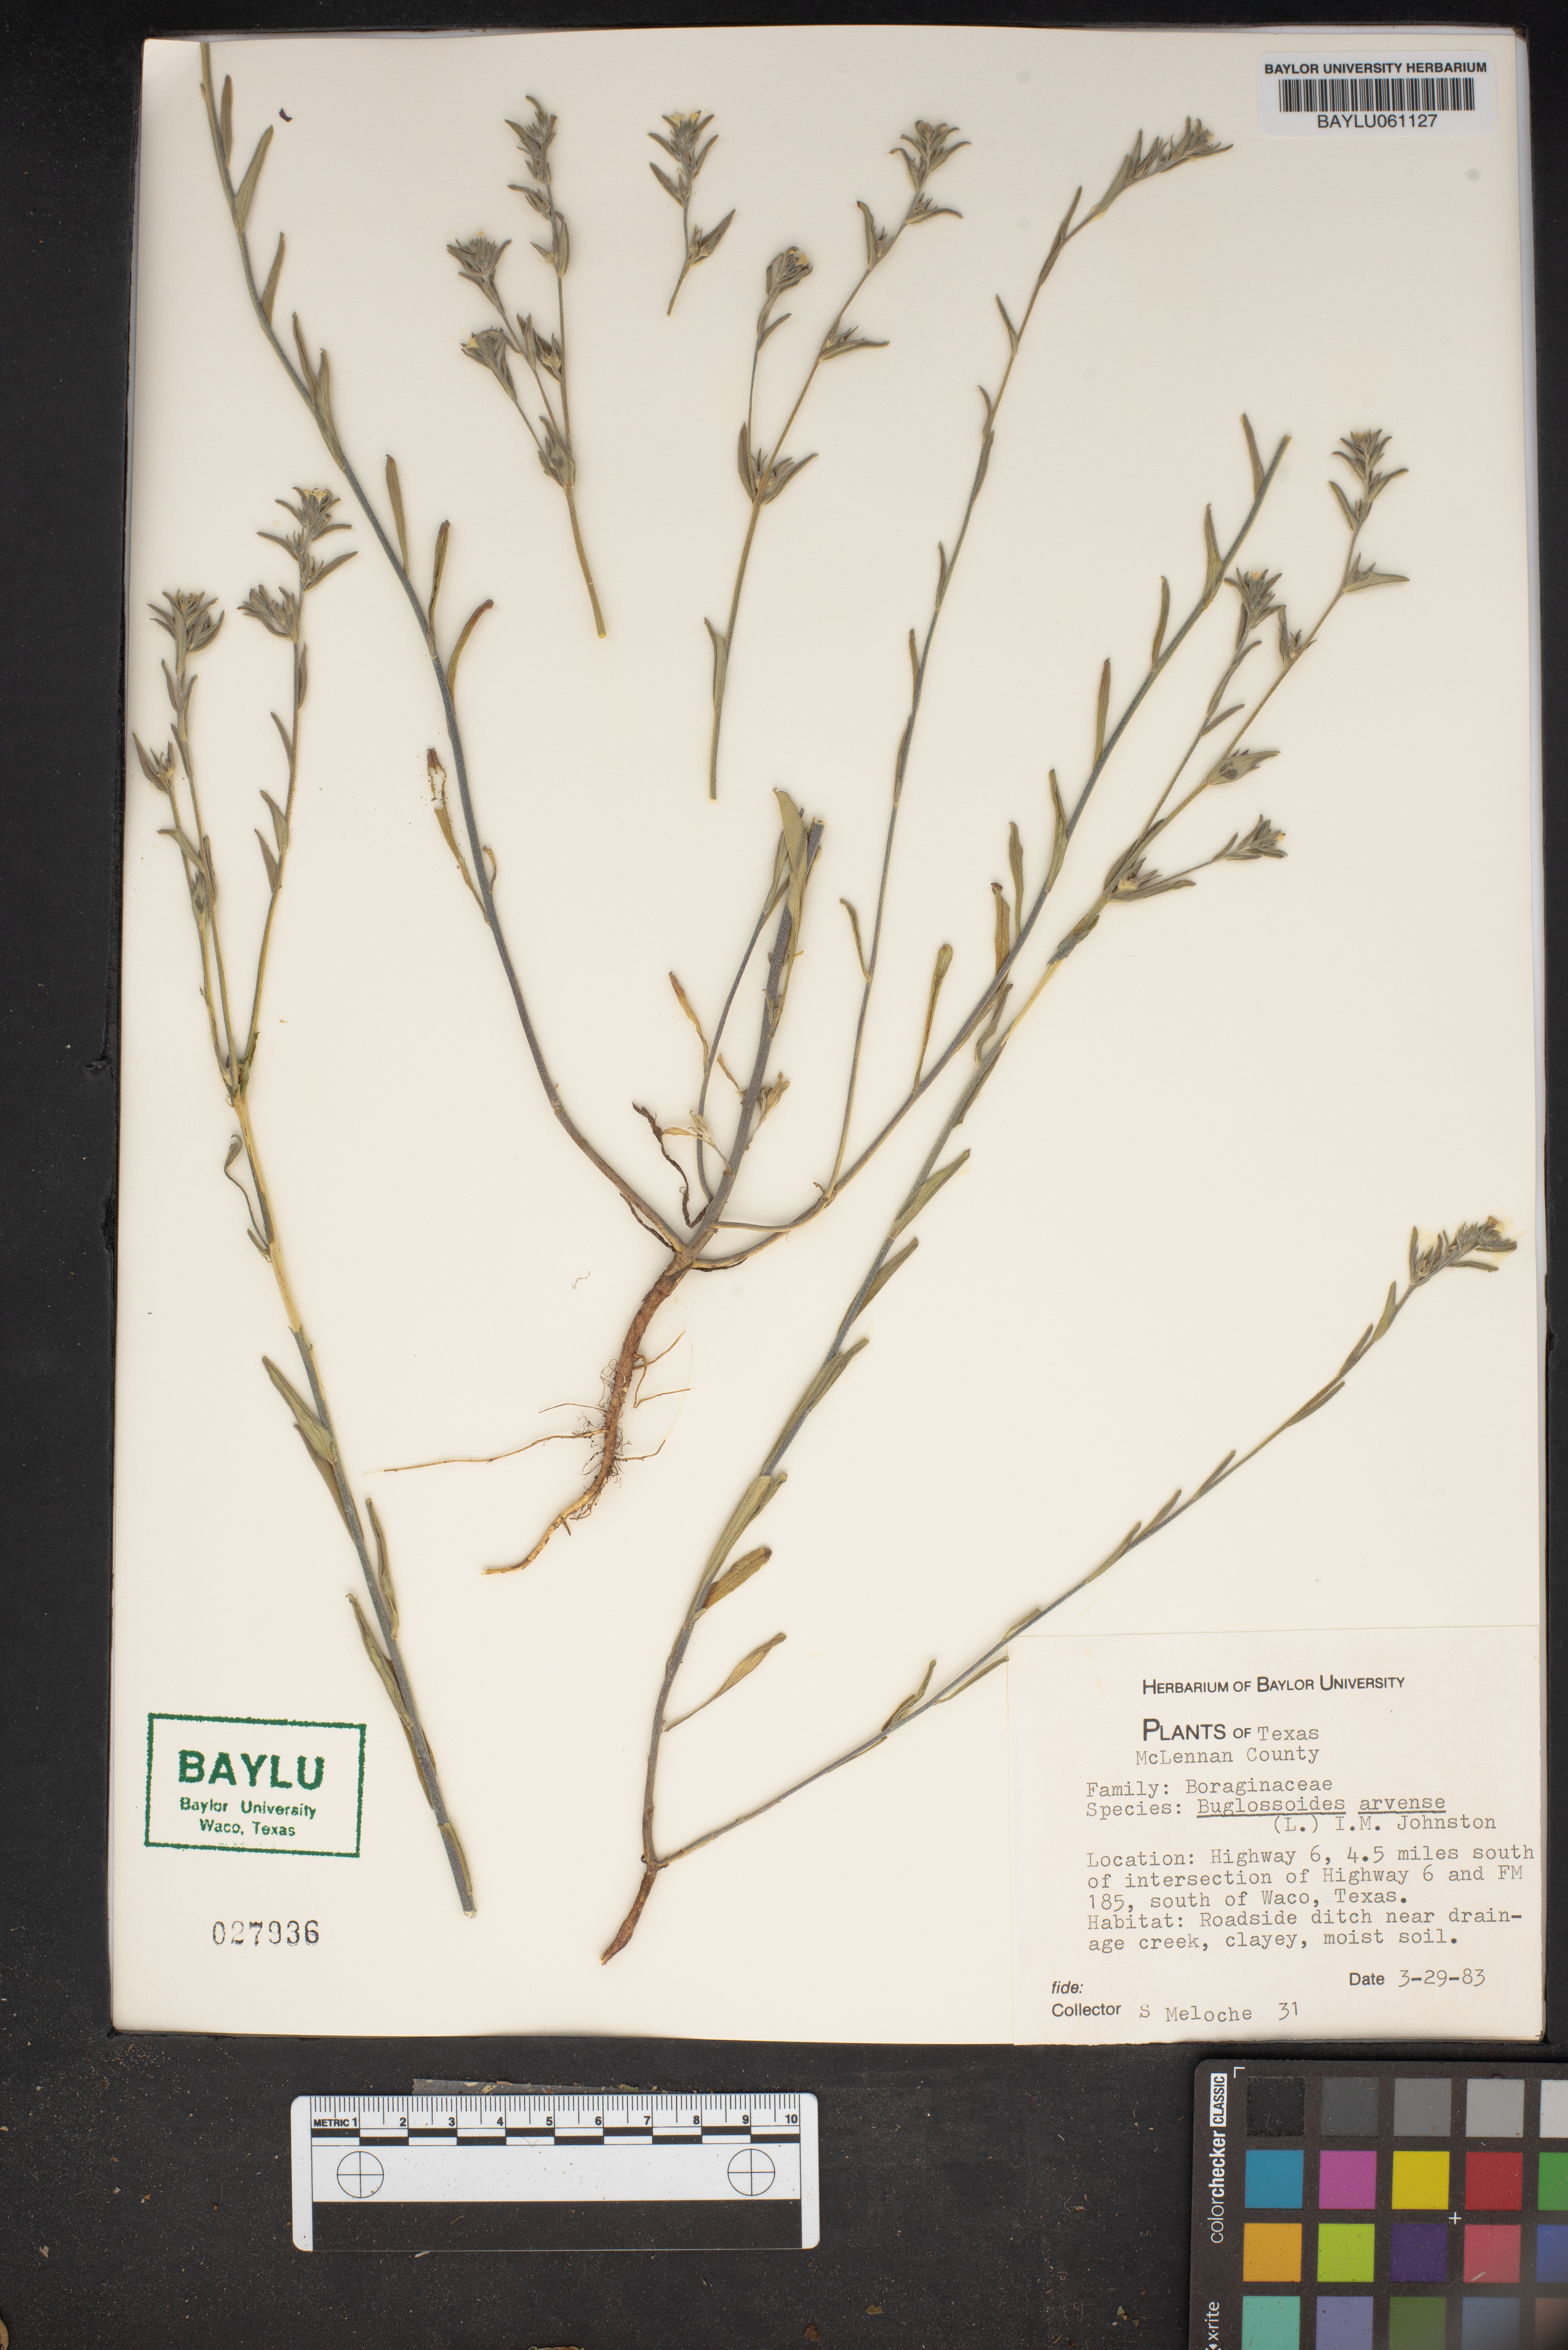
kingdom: Plantae
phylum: Tracheophyta
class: Magnoliopsida
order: Boraginales
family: Boraginaceae
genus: Buglossoides
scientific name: Buglossoides arvensis
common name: Corn gromwell
